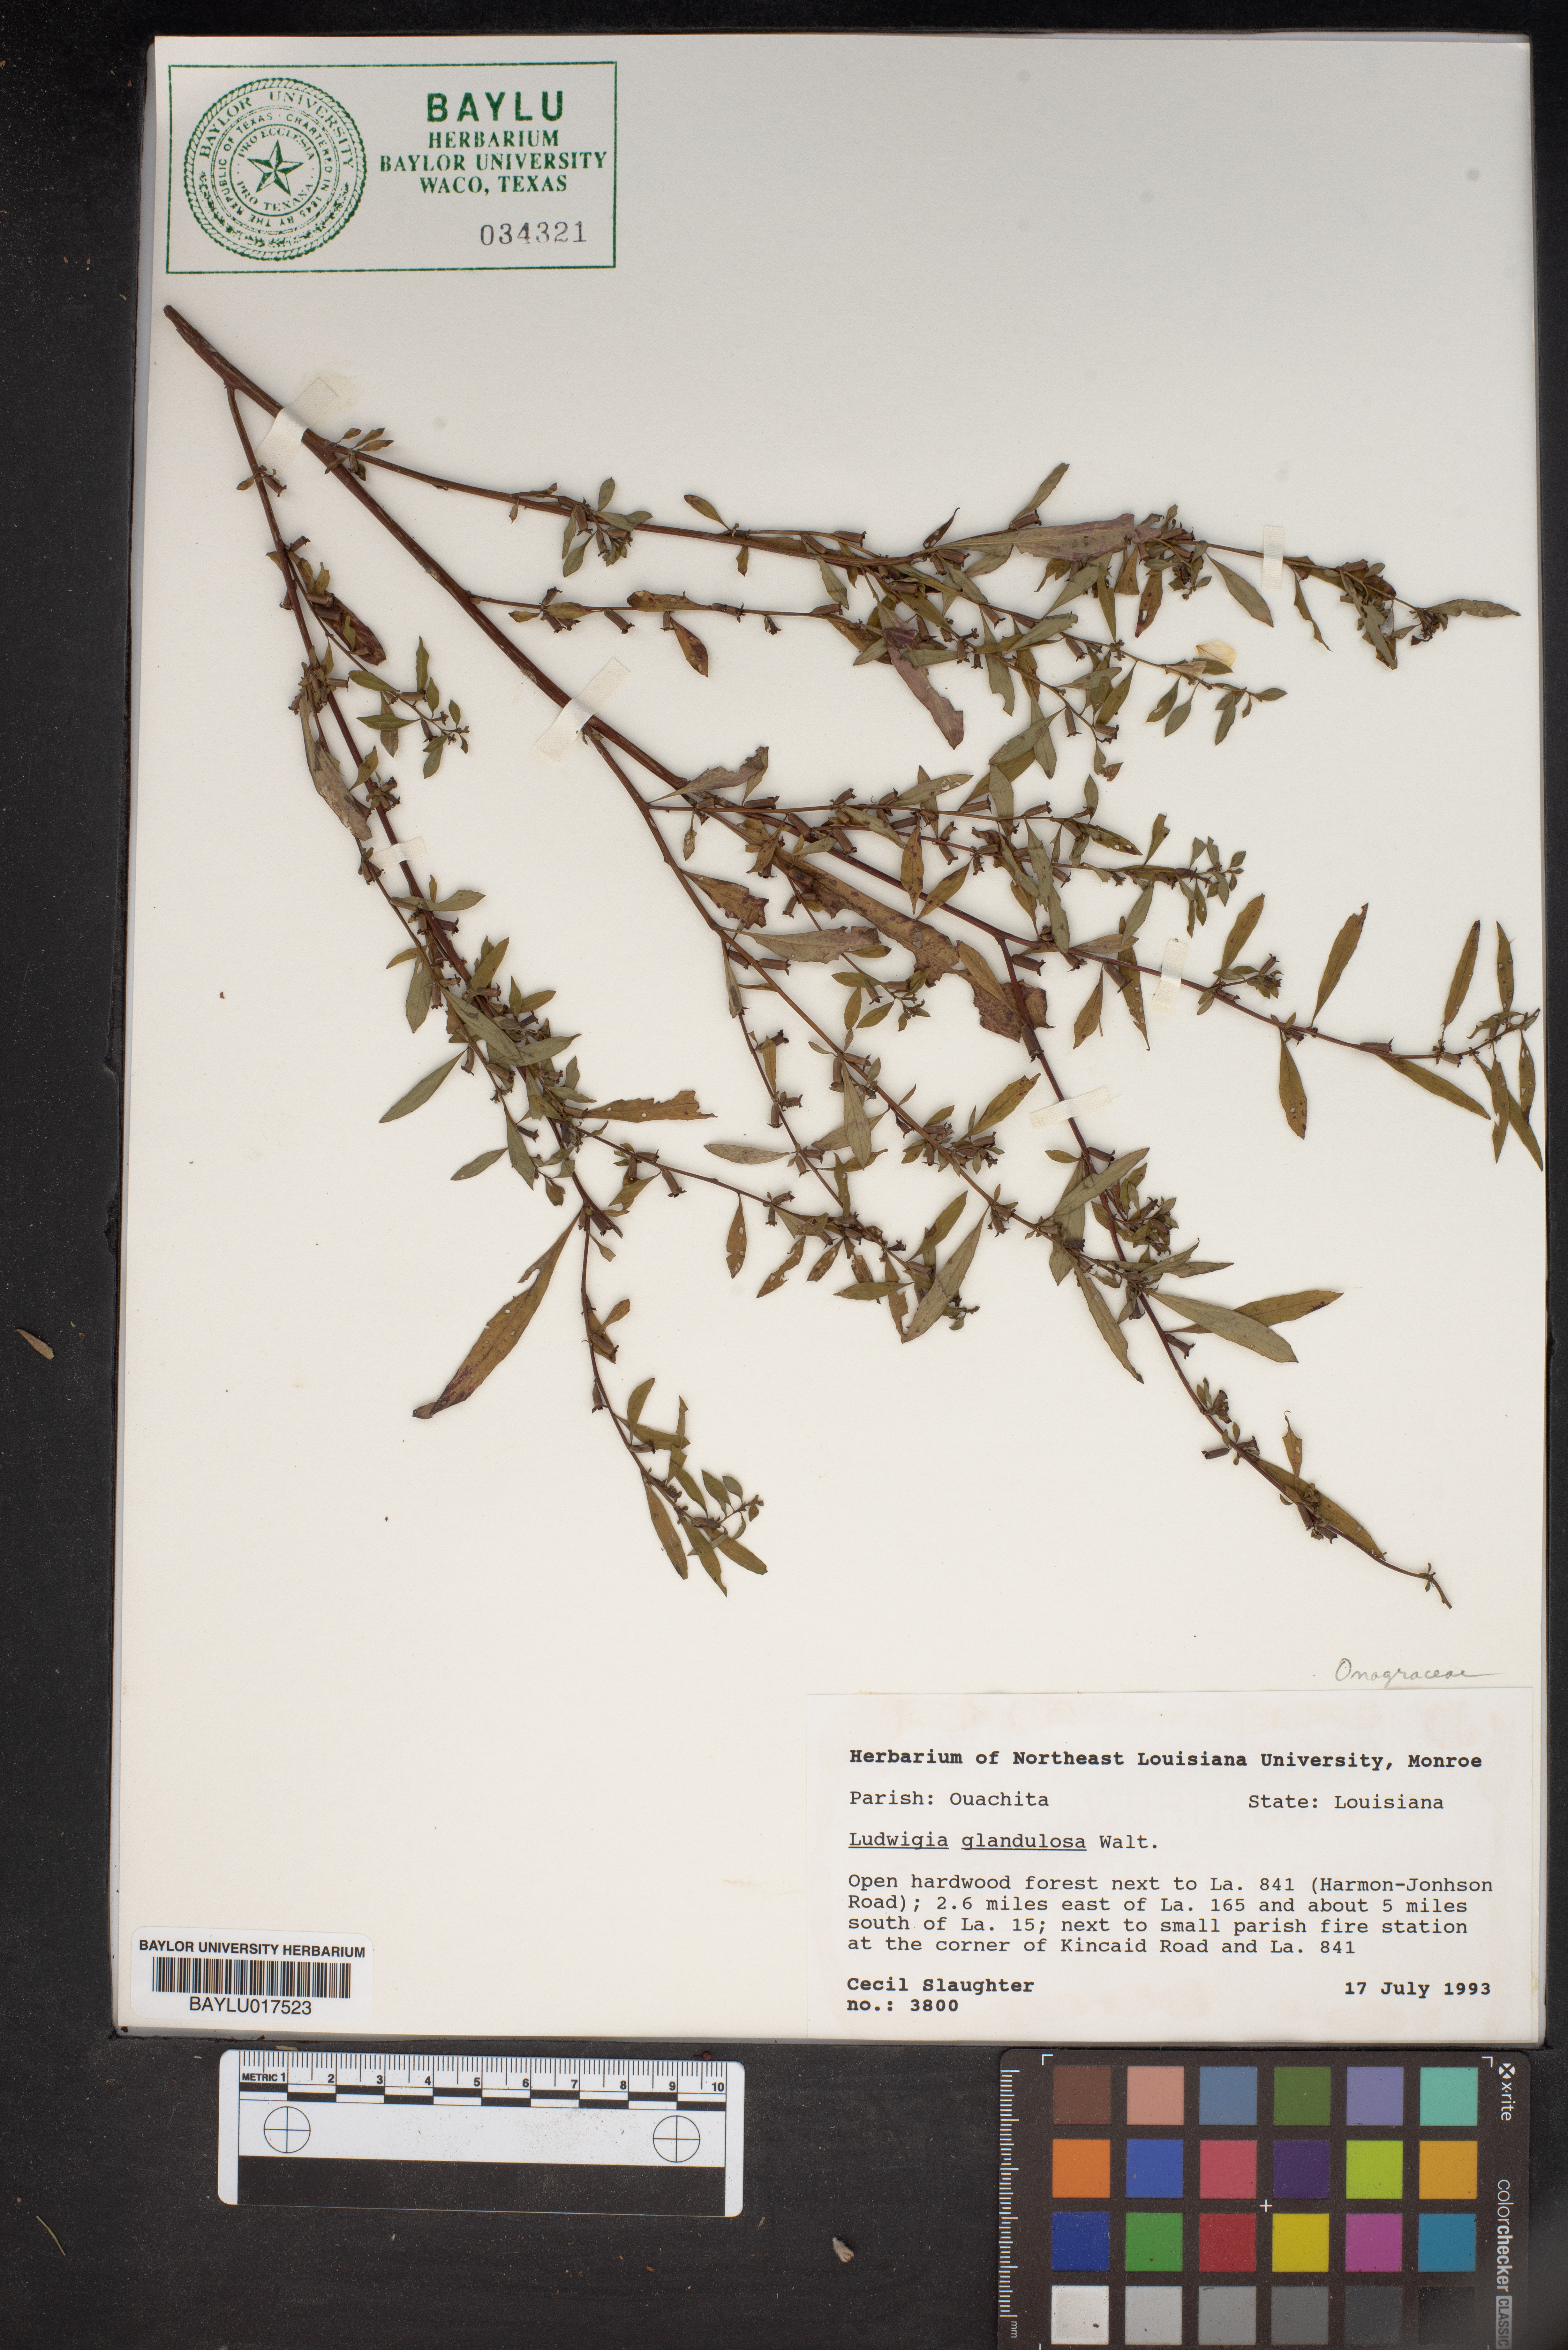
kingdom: Plantae
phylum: Tracheophyta
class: Magnoliopsida
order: Myrtales
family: Onagraceae
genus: Ludwigia
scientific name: Ludwigia glandulosa
